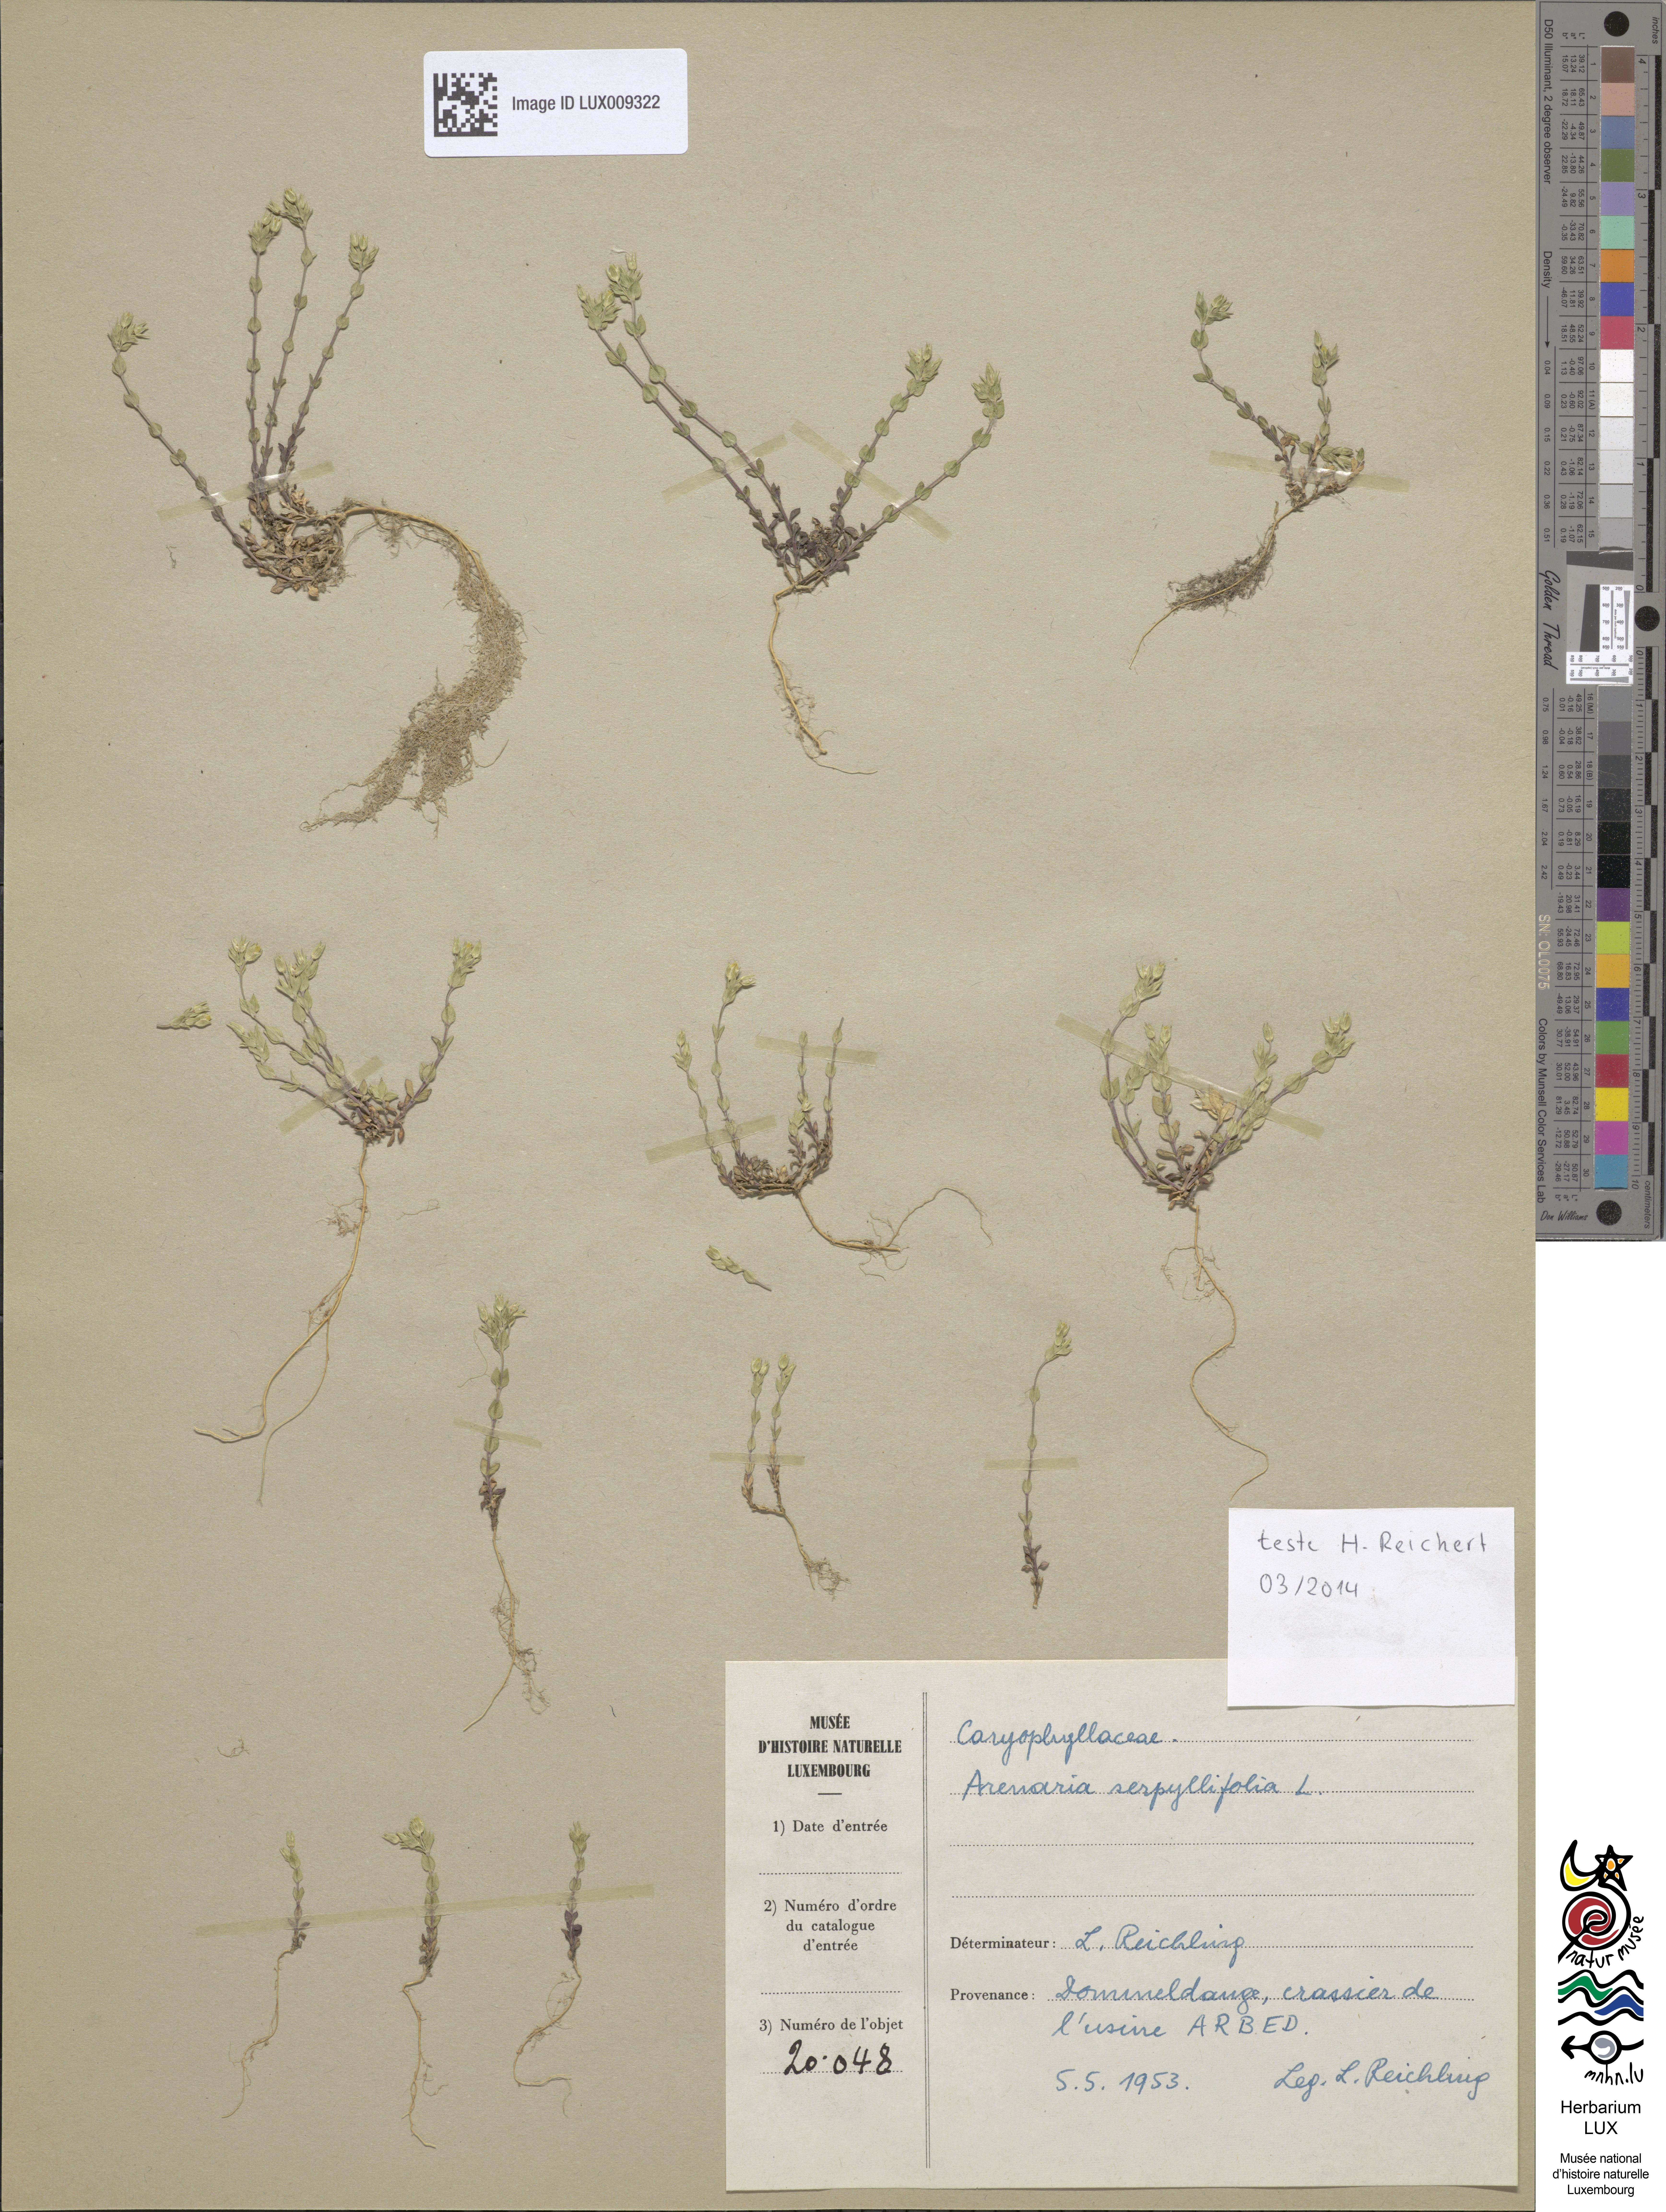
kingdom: Plantae
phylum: Tracheophyta
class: Magnoliopsida
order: Caryophyllales
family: Caryophyllaceae
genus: Arenaria
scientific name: Arenaria serpyllifolia
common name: Thyme-leaved sandwort
